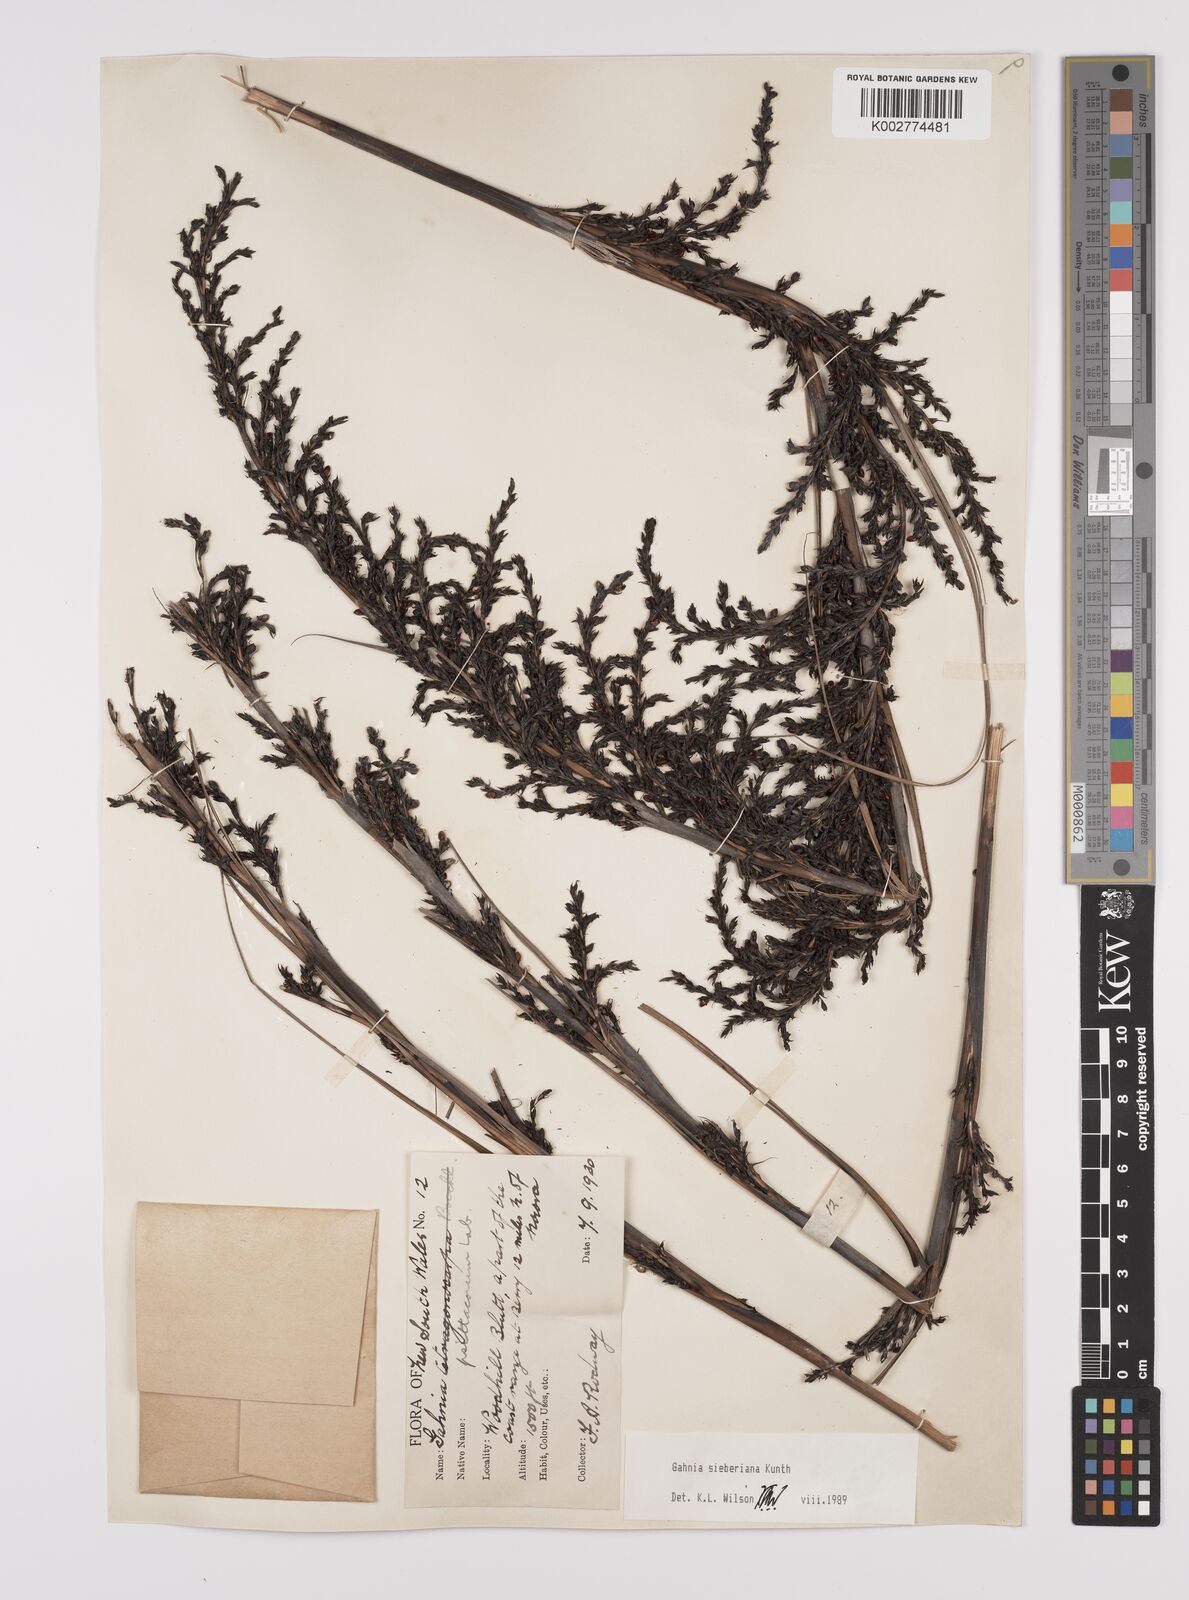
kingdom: Plantae
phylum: Tracheophyta
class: Liliopsida
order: Poales
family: Cyperaceae
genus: Gahnia
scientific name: Gahnia sieberiana
